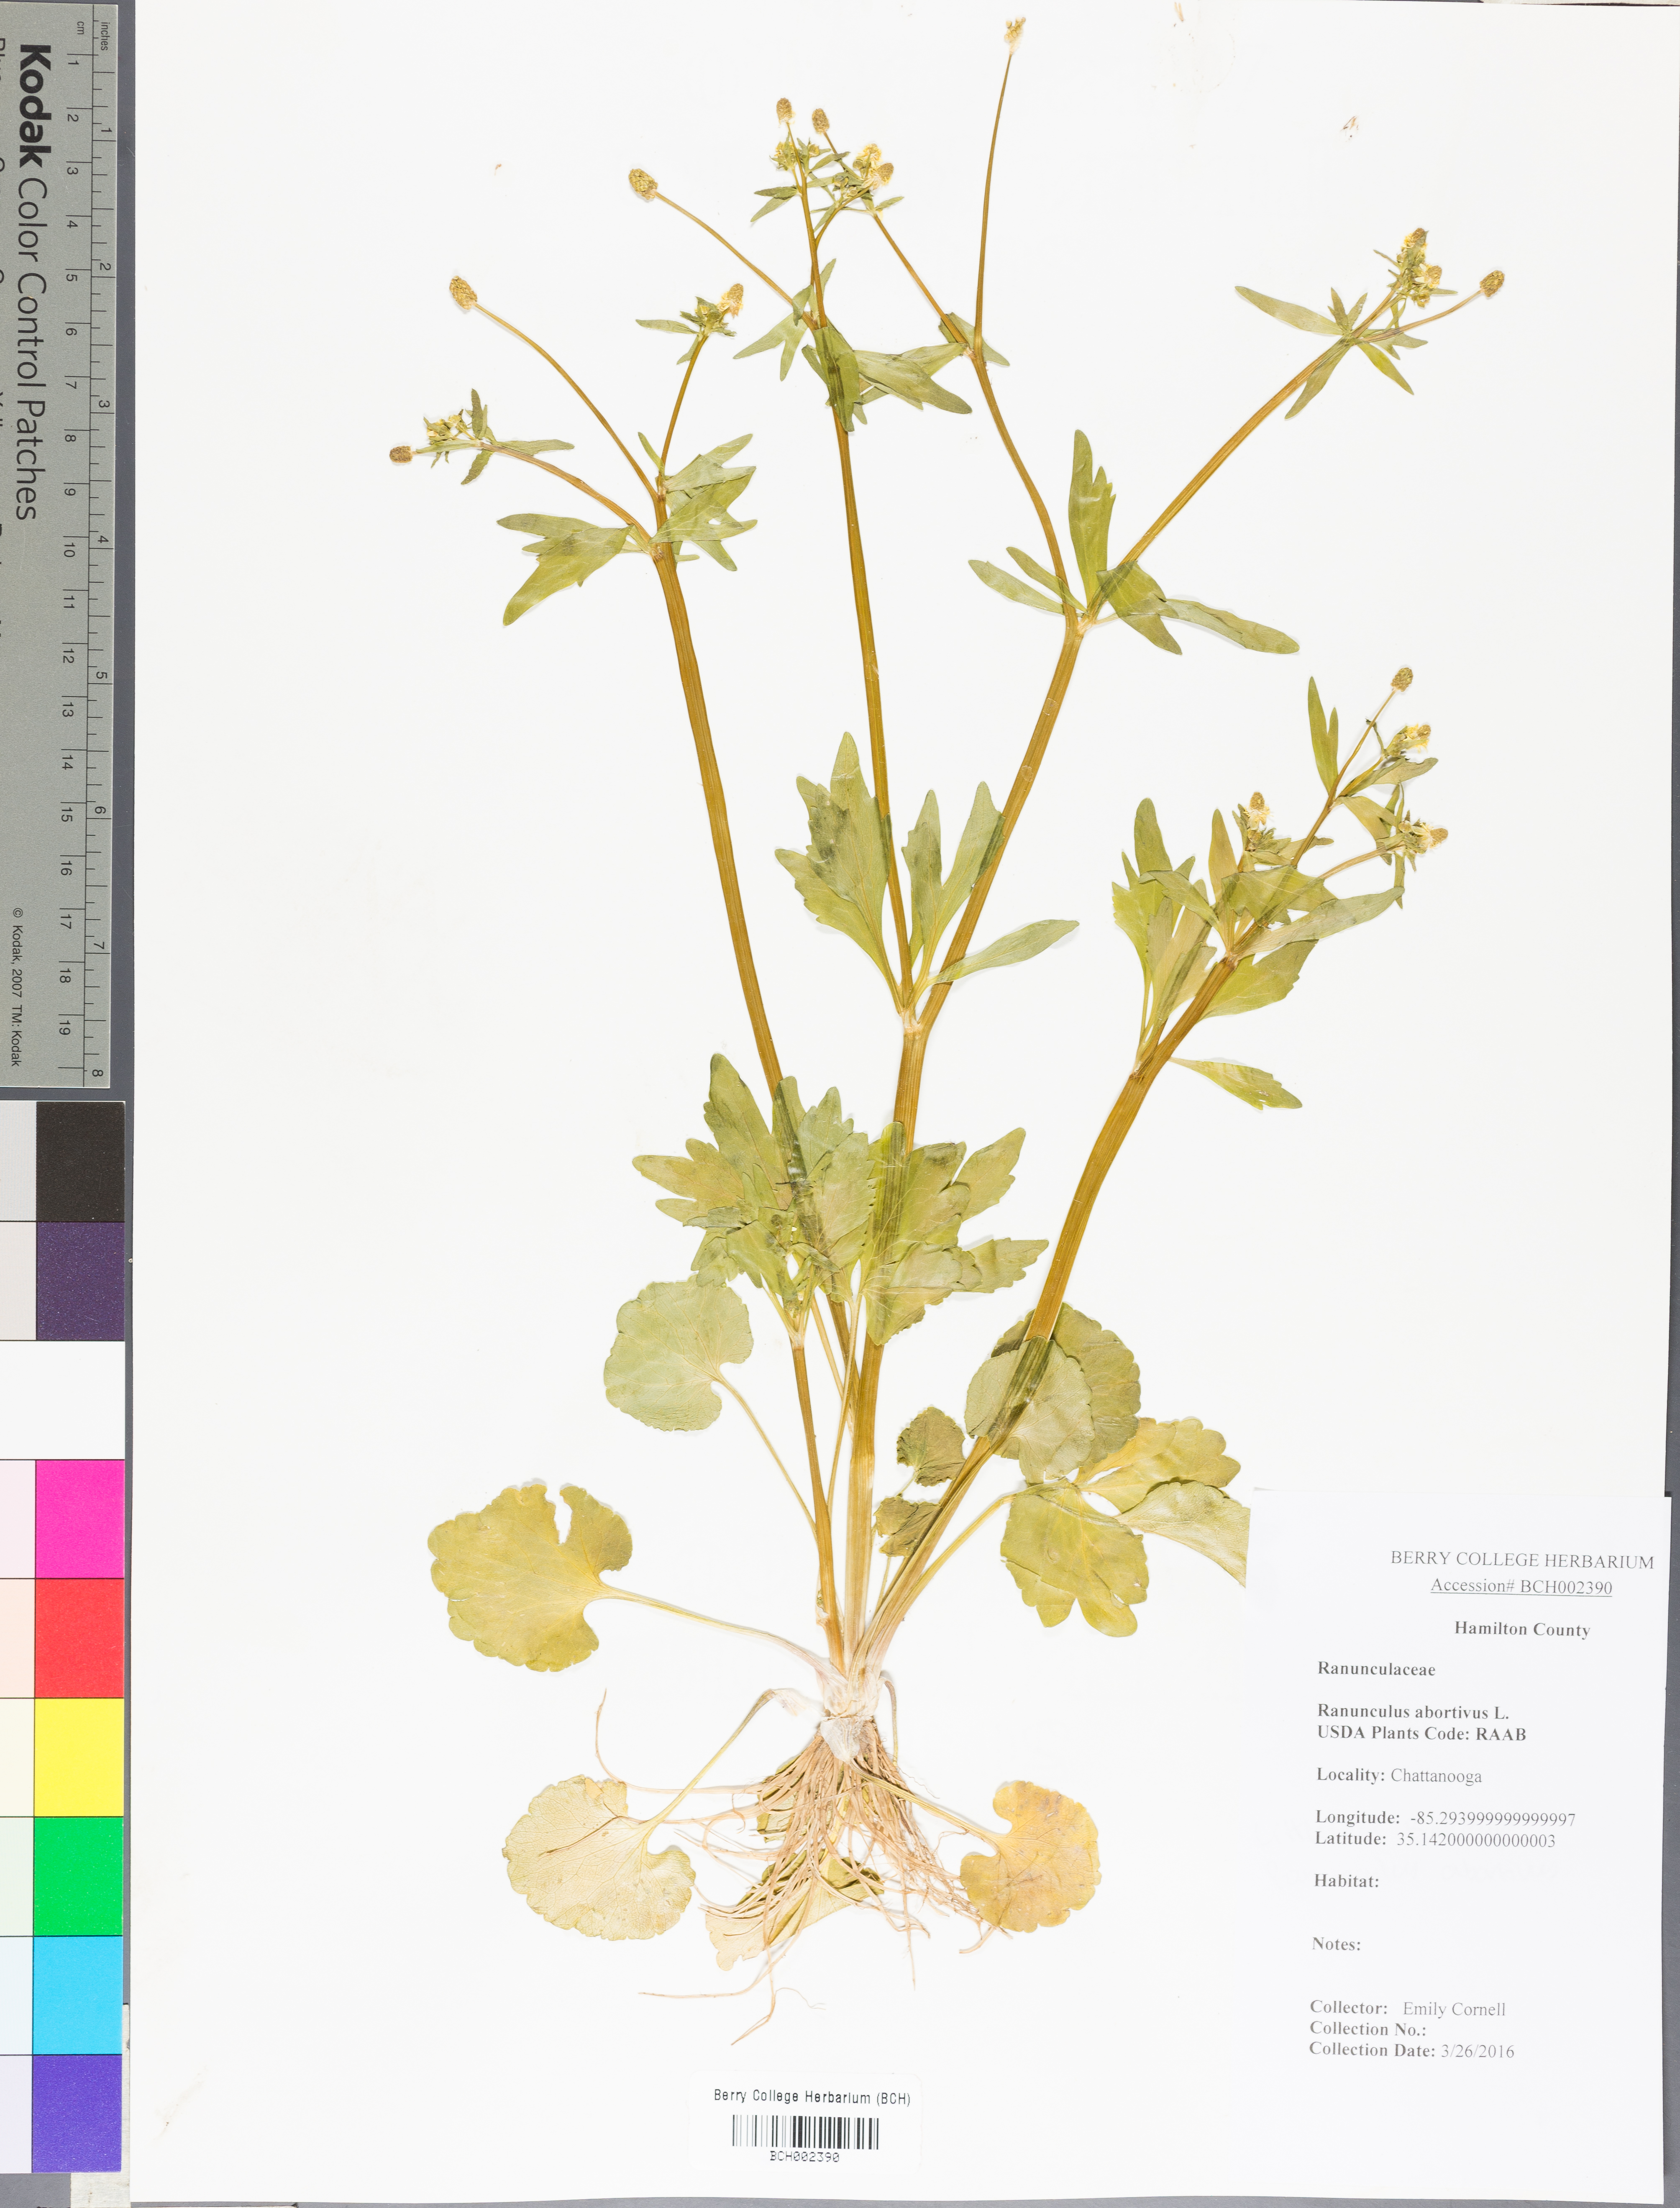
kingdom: Plantae
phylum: Tracheophyta
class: Magnoliopsida
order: Ranunculales
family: Ranunculaceae
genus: Ranunculus
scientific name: Ranunculus abortivus
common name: Early wood buttercup
